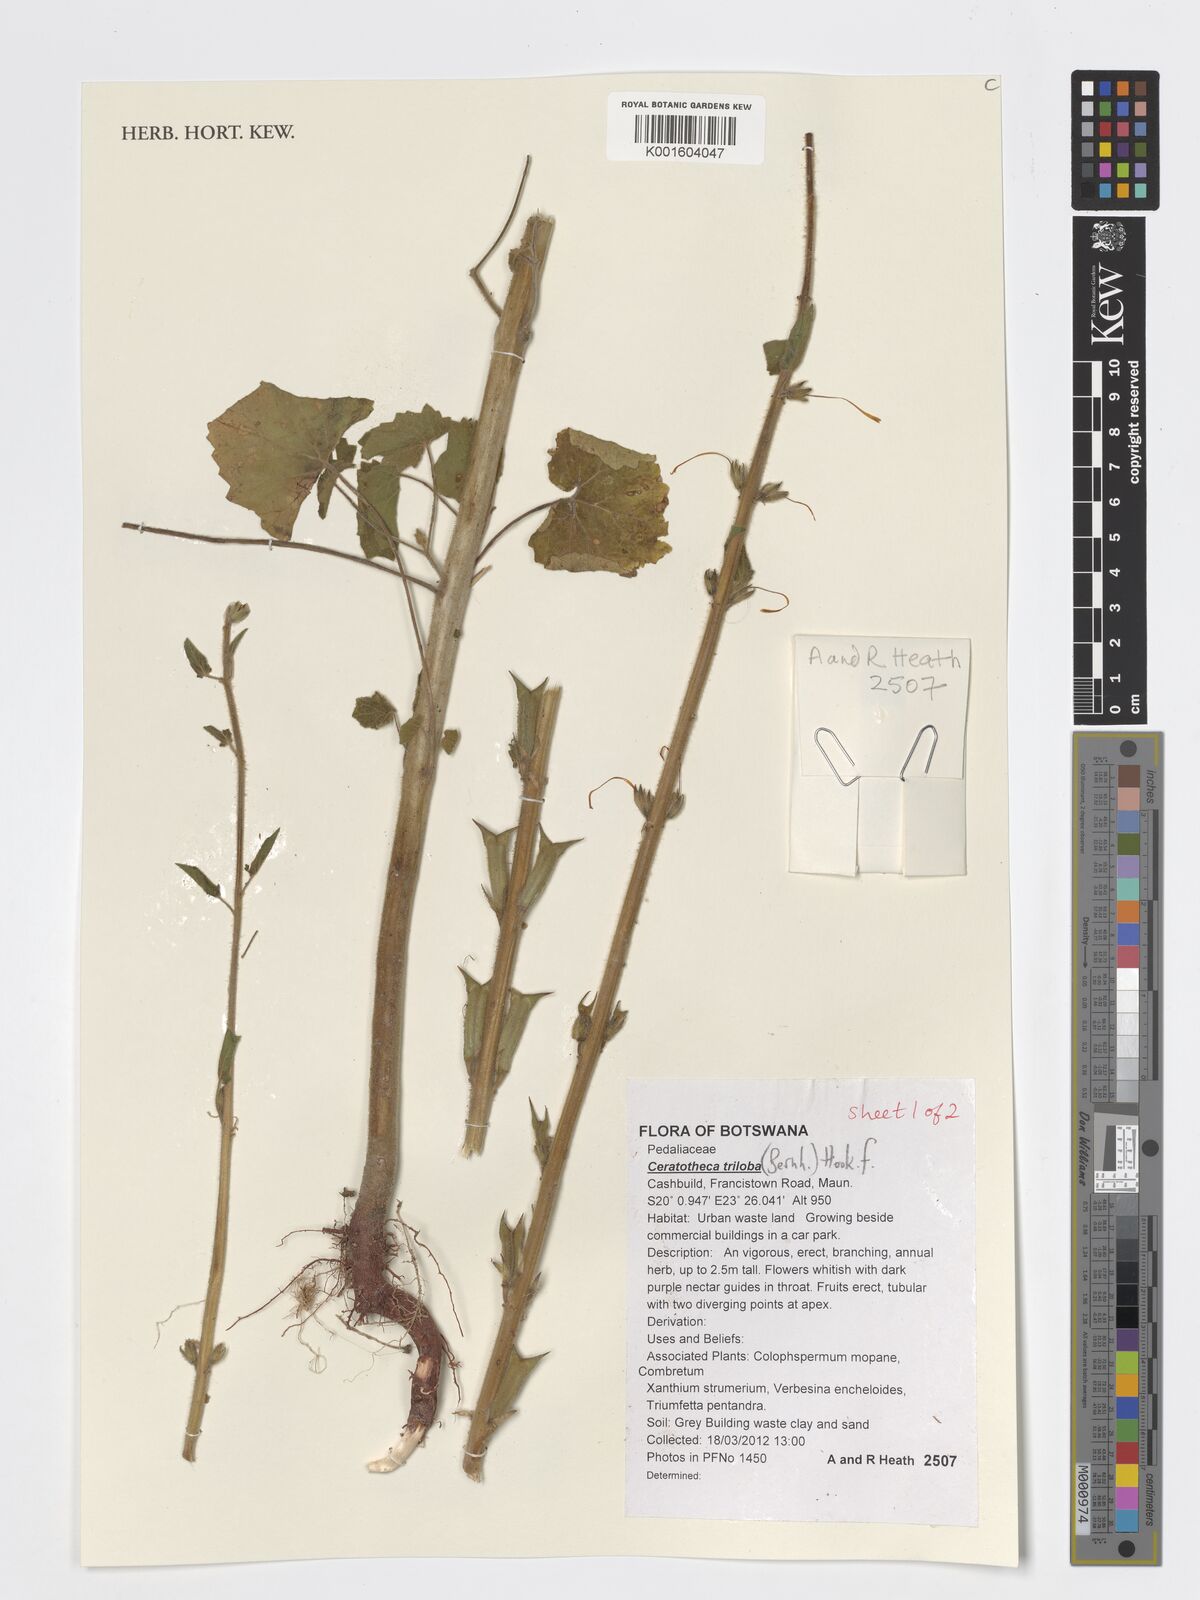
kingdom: Plantae
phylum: Tracheophyta
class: Magnoliopsida
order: Lamiales
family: Pedaliaceae
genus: Sesamum
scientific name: Sesamum trilobum
